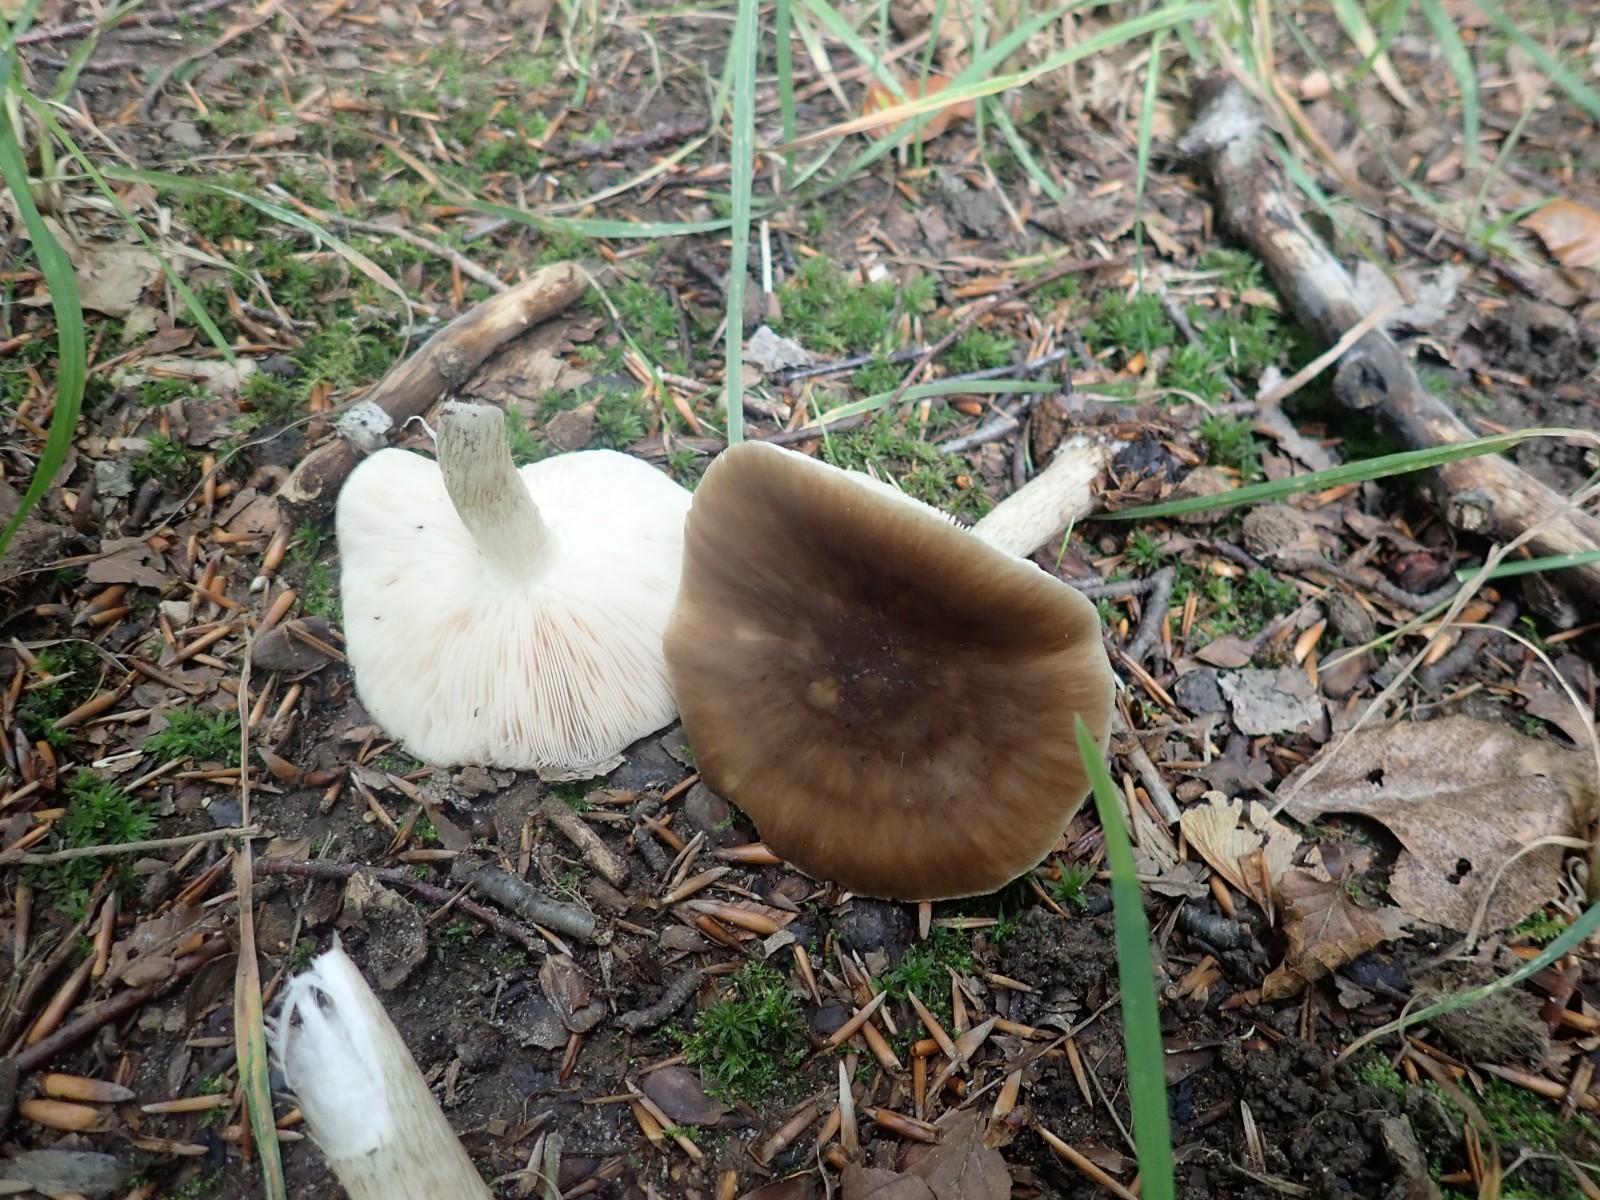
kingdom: Fungi
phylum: Basidiomycota
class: Agaricomycetes
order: Agaricales
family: Pluteaceae
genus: Pluteus
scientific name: Pluteus cervinus
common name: sodfarvet skærmhat
